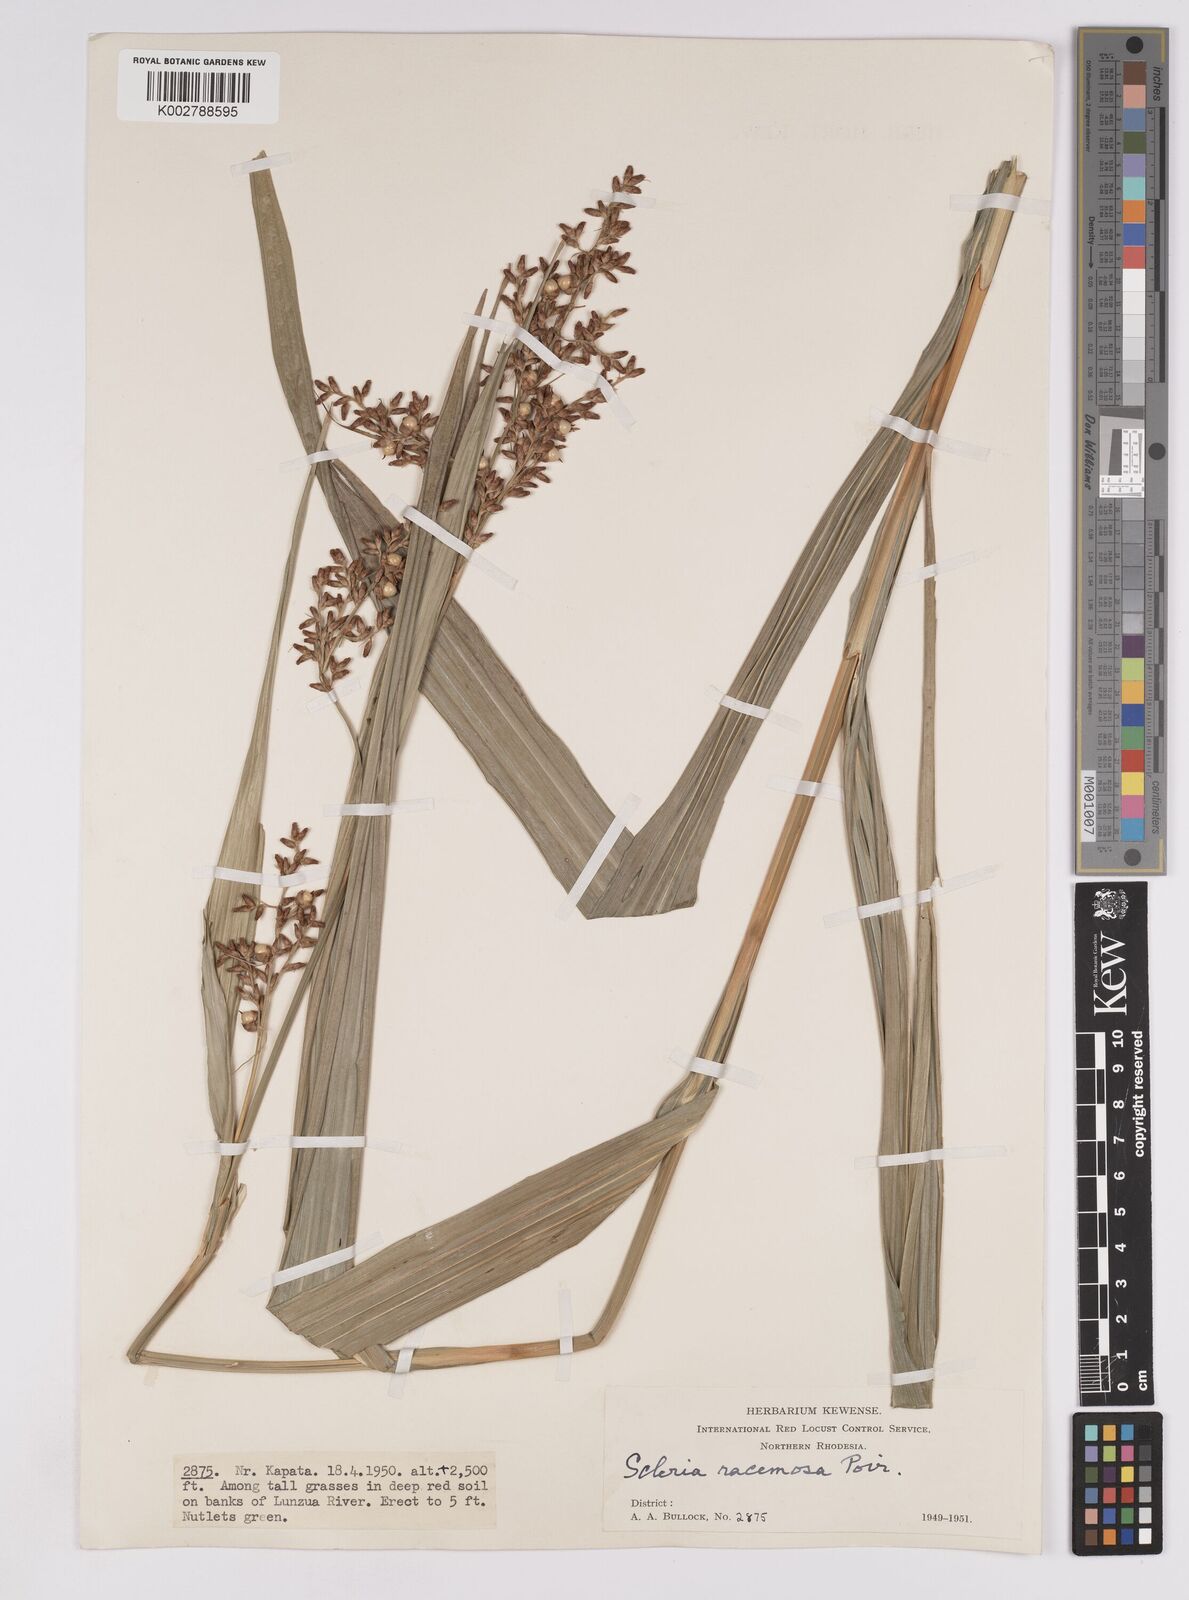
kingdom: Plantae
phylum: Tracheophyta
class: Liliopsida
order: Poales
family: Cyperaceae
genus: Scleria
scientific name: Scleria racemosa
